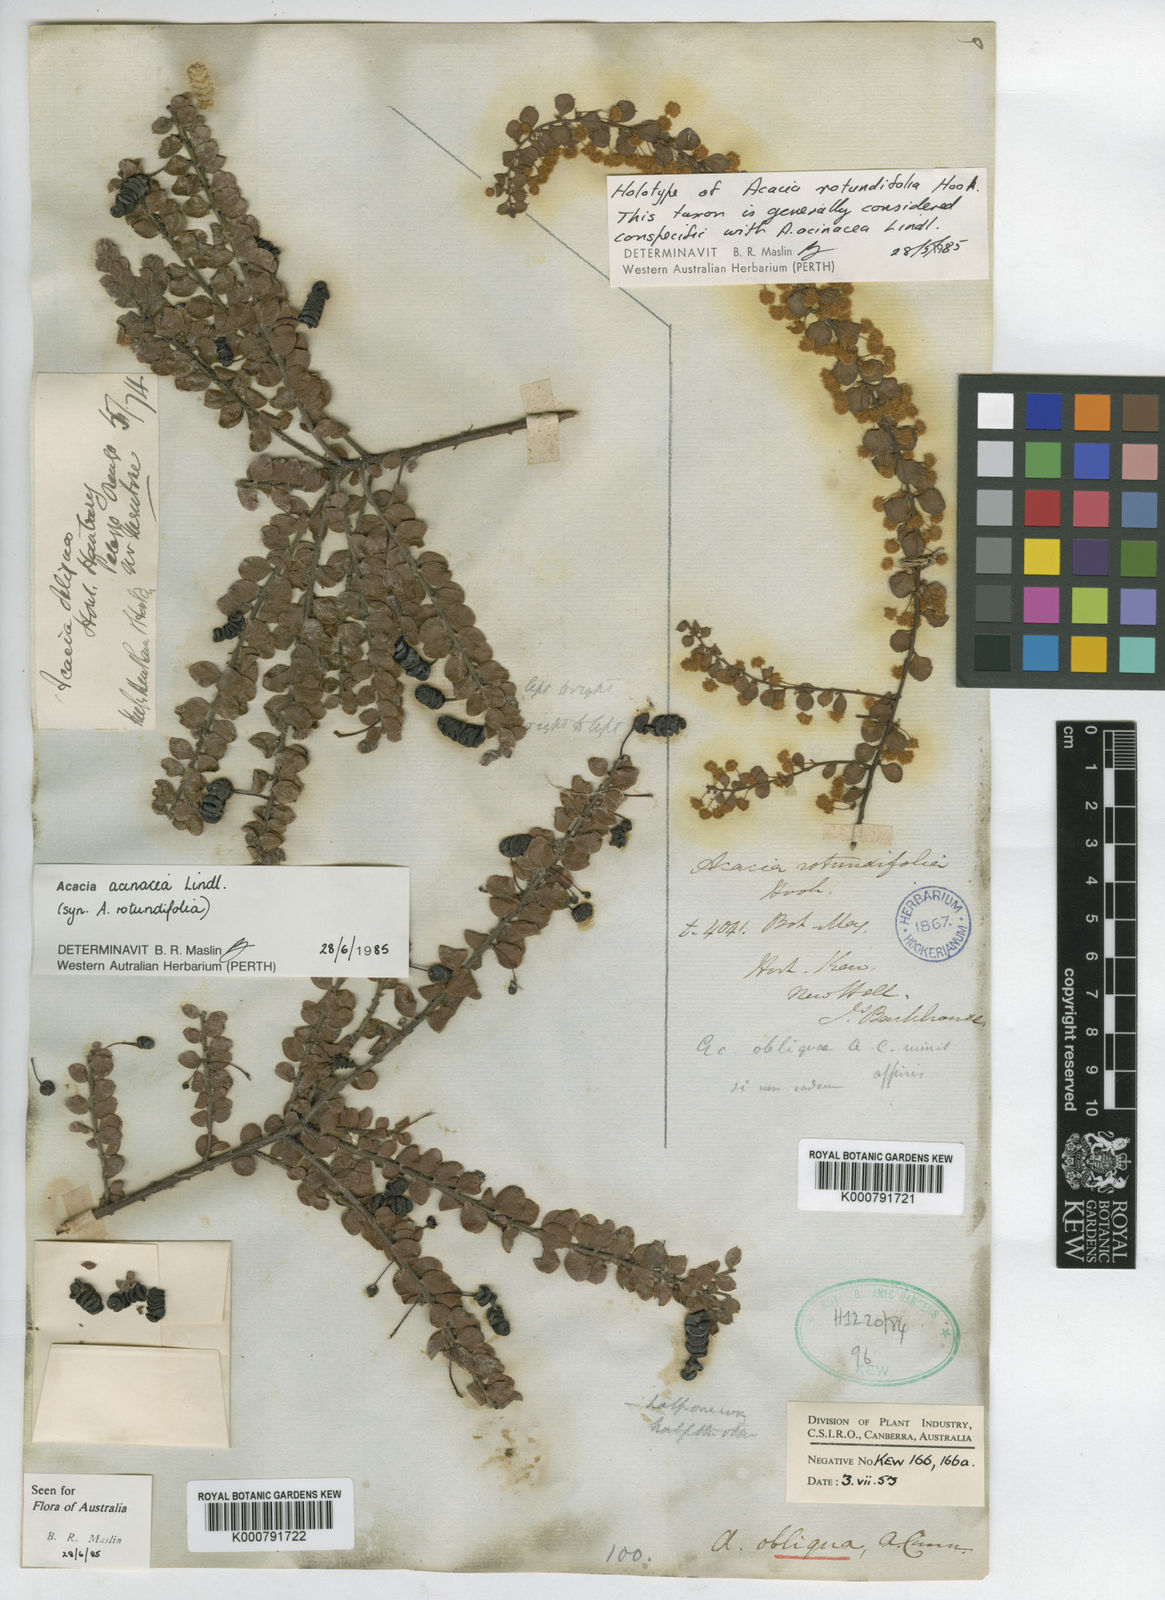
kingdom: Plantae
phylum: Tracheophyta
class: Magnoliopsida
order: Fabales
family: Fabaceae
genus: Acacia
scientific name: Acacia acinacea
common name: Gold-dust acacia
